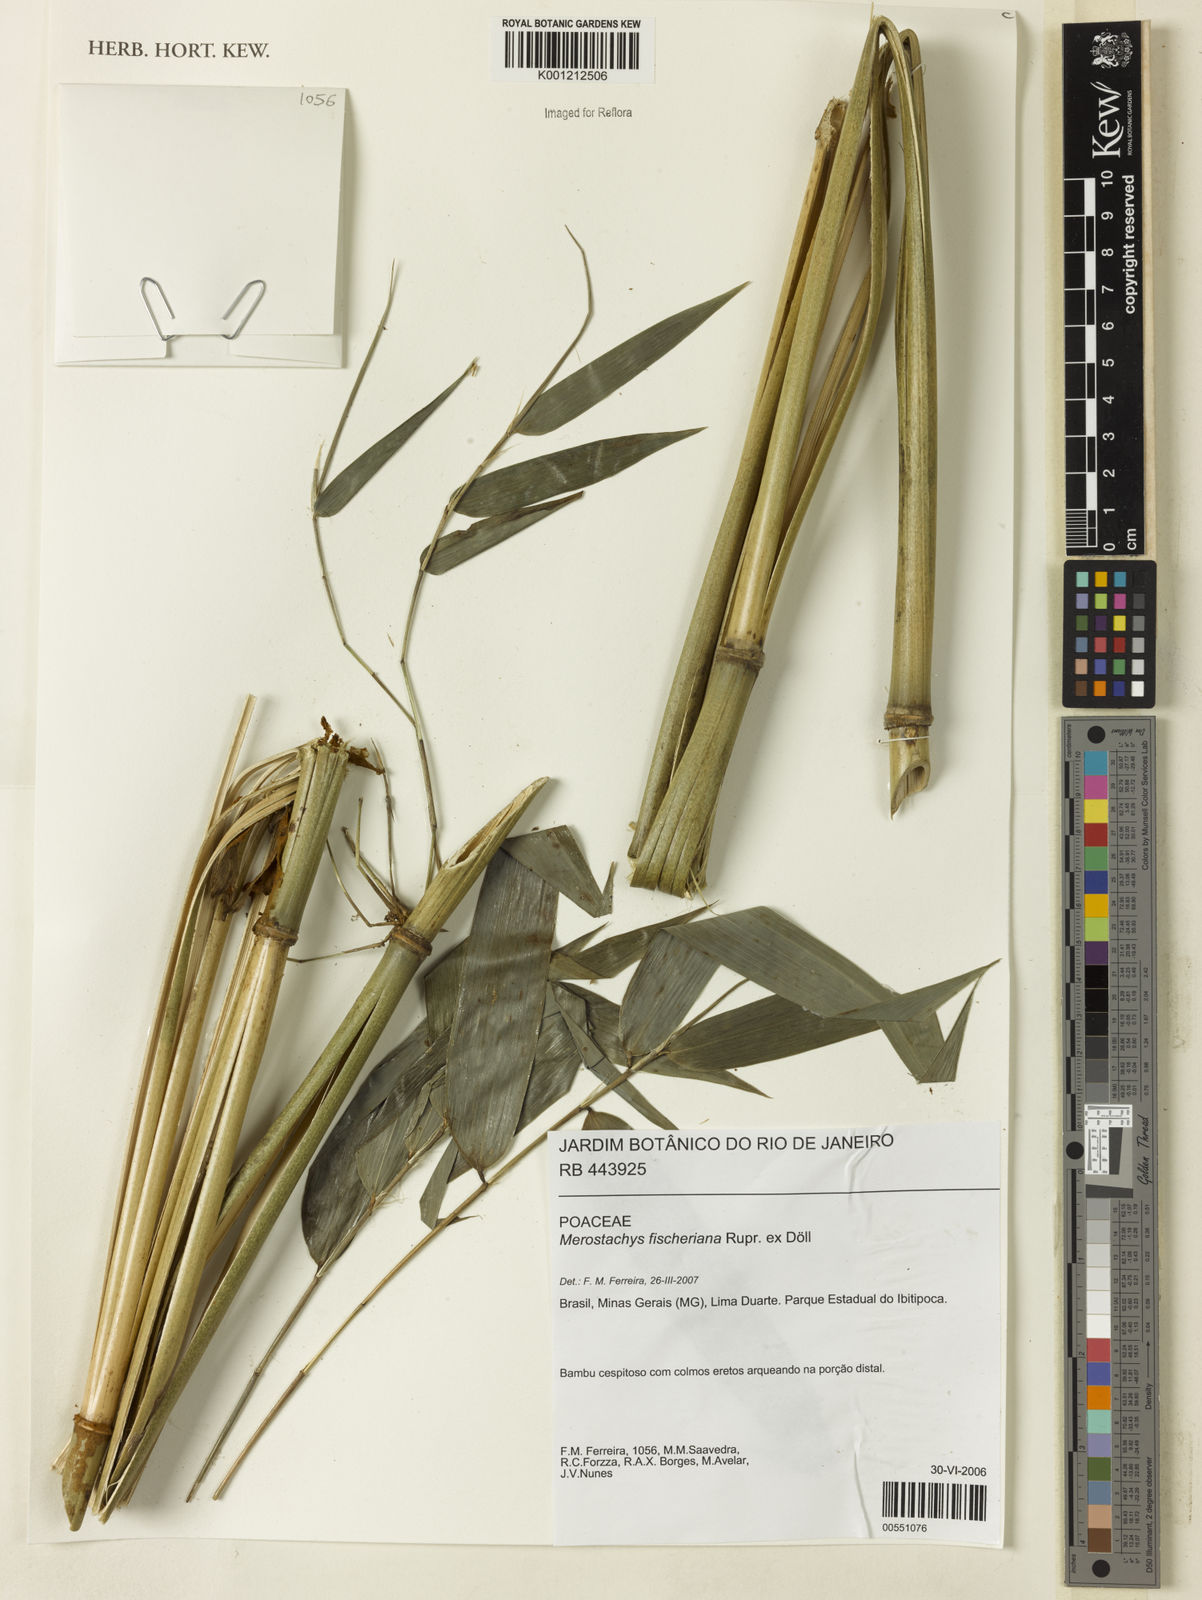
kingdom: Plantae
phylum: Tracheophyta
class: Liliopsida
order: Poales
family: Poaceae
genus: Merostachys
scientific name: Merostachys
